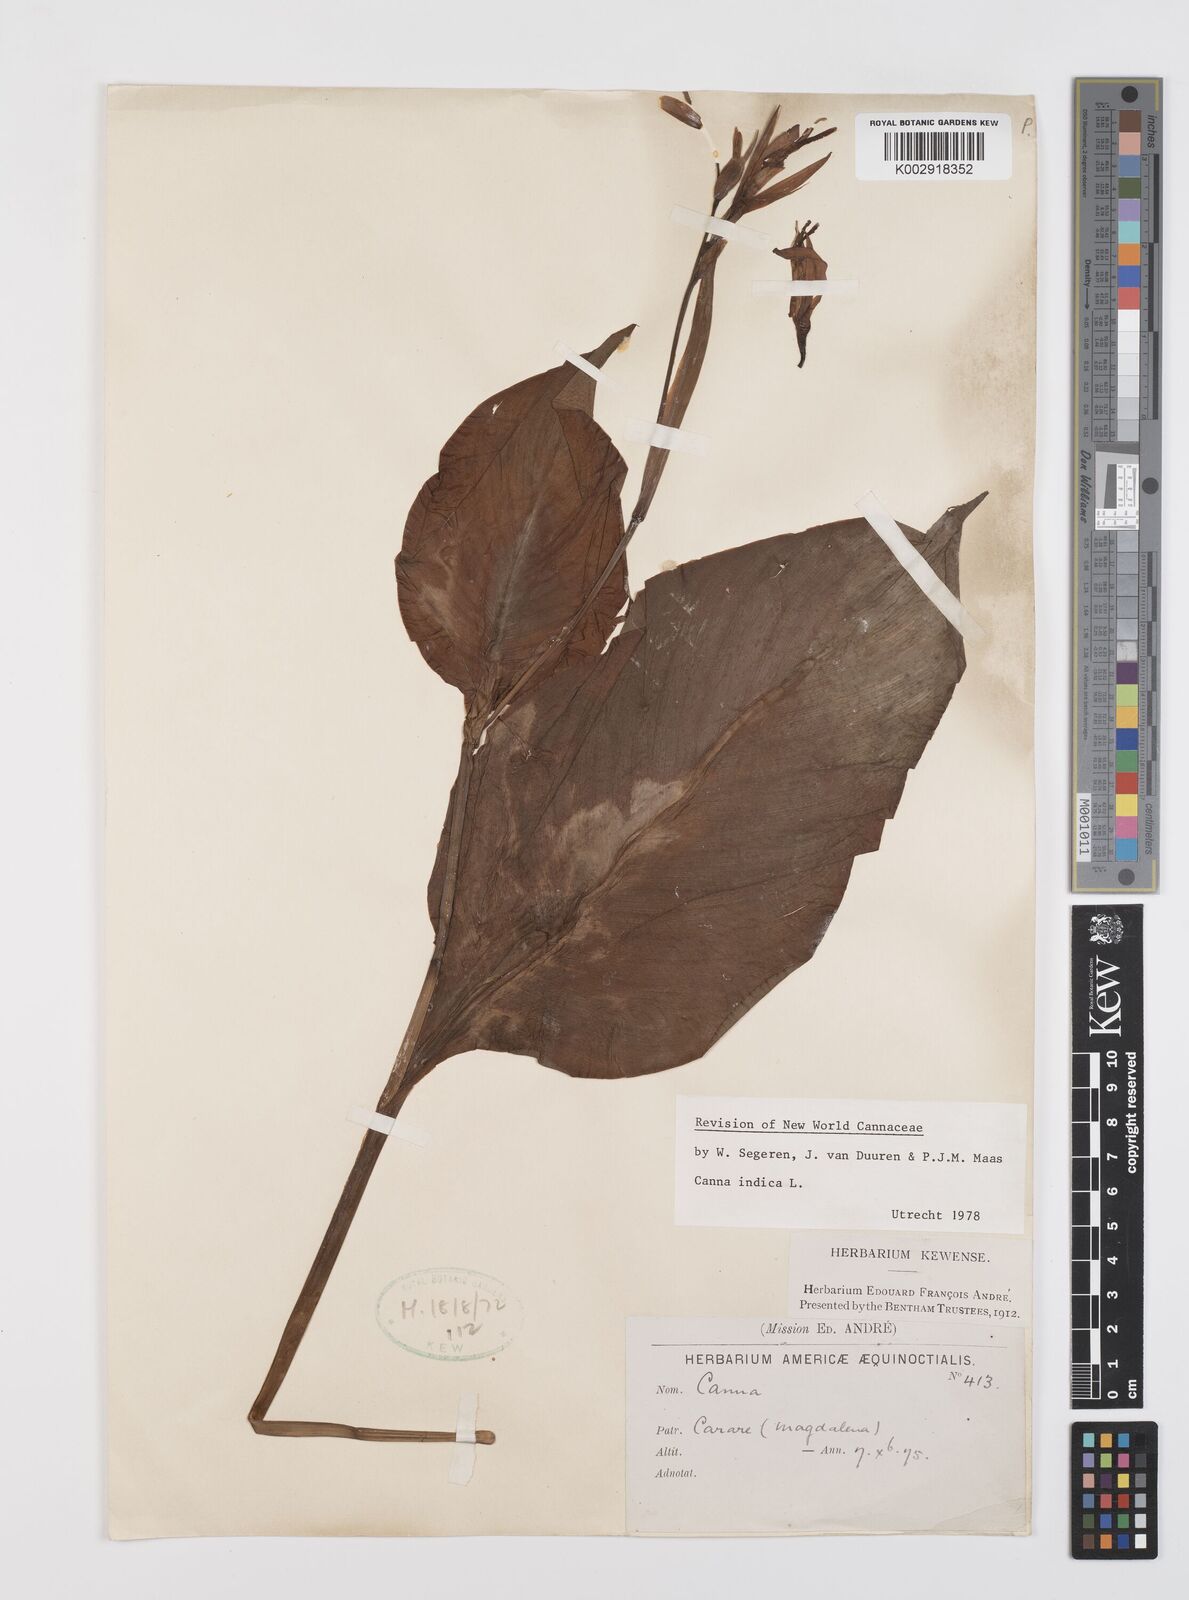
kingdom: Plantae
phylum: Tracheophyta
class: Liliopsida
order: Zingiberales
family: Cannaceae
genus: Canna
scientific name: Canna indica
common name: Indian shot
